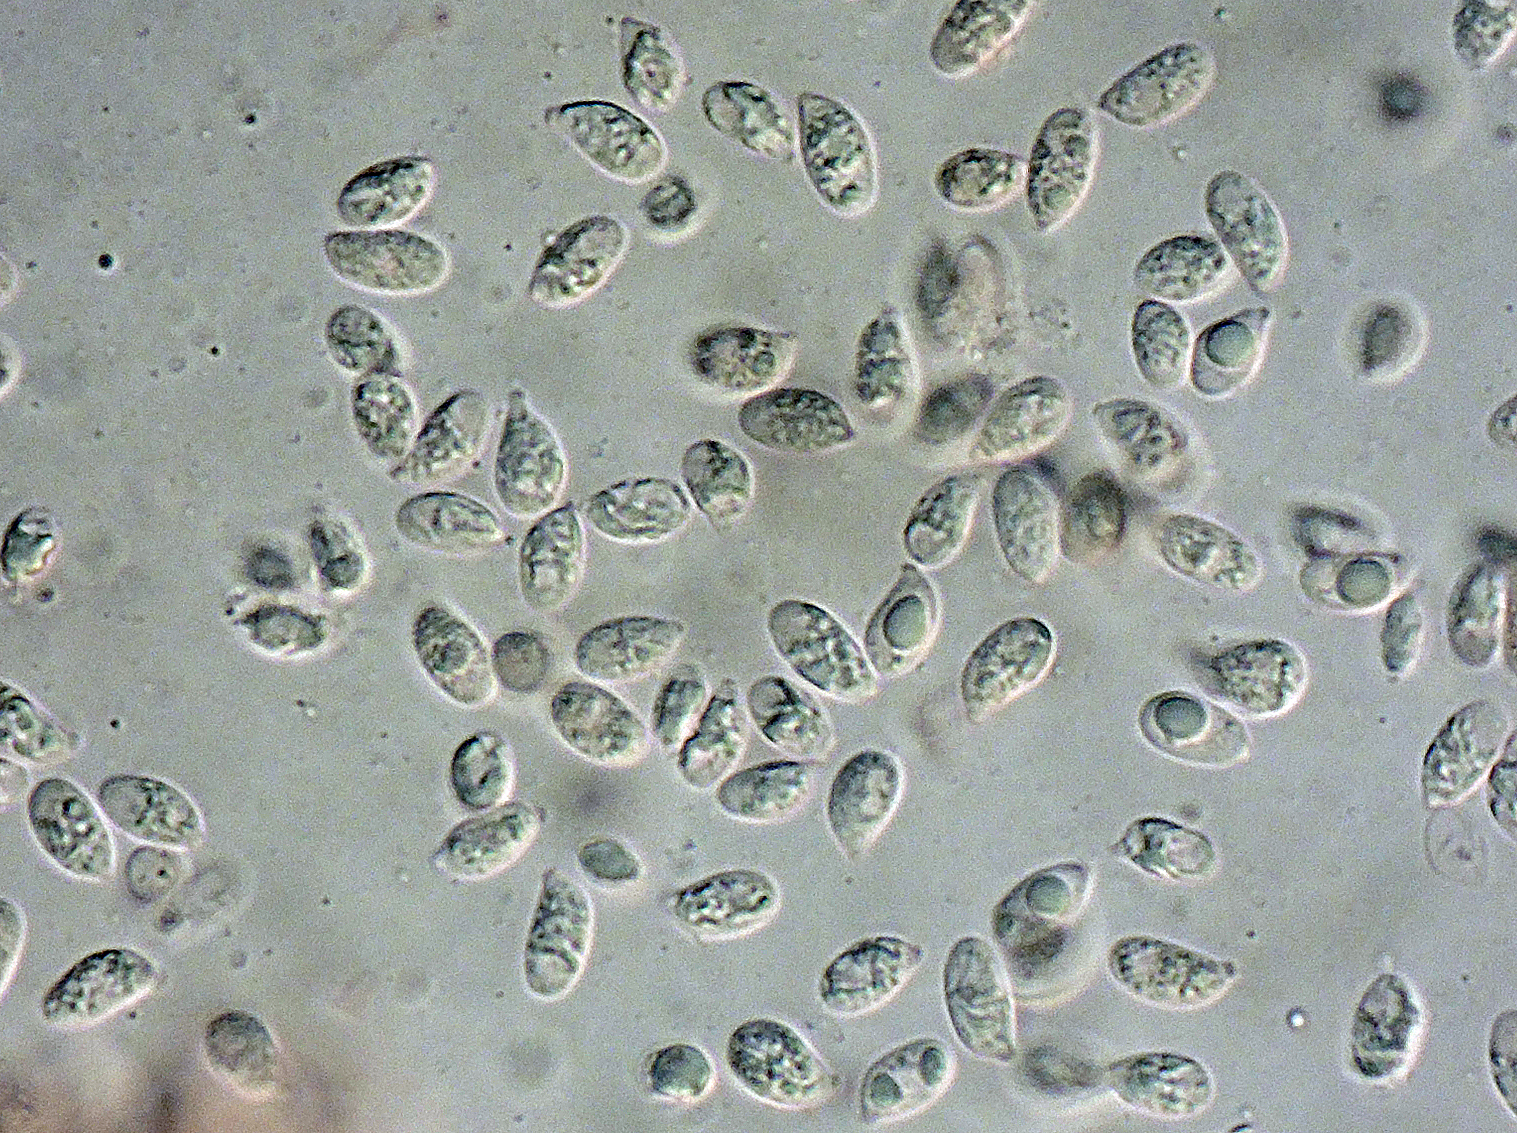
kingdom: Fungi
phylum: Basidiomycota
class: Agaricomycetes
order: Agaricales
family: Mycenaceae
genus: Atheniella
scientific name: Atheniella flavoalba
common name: gulhvid huesvamp
